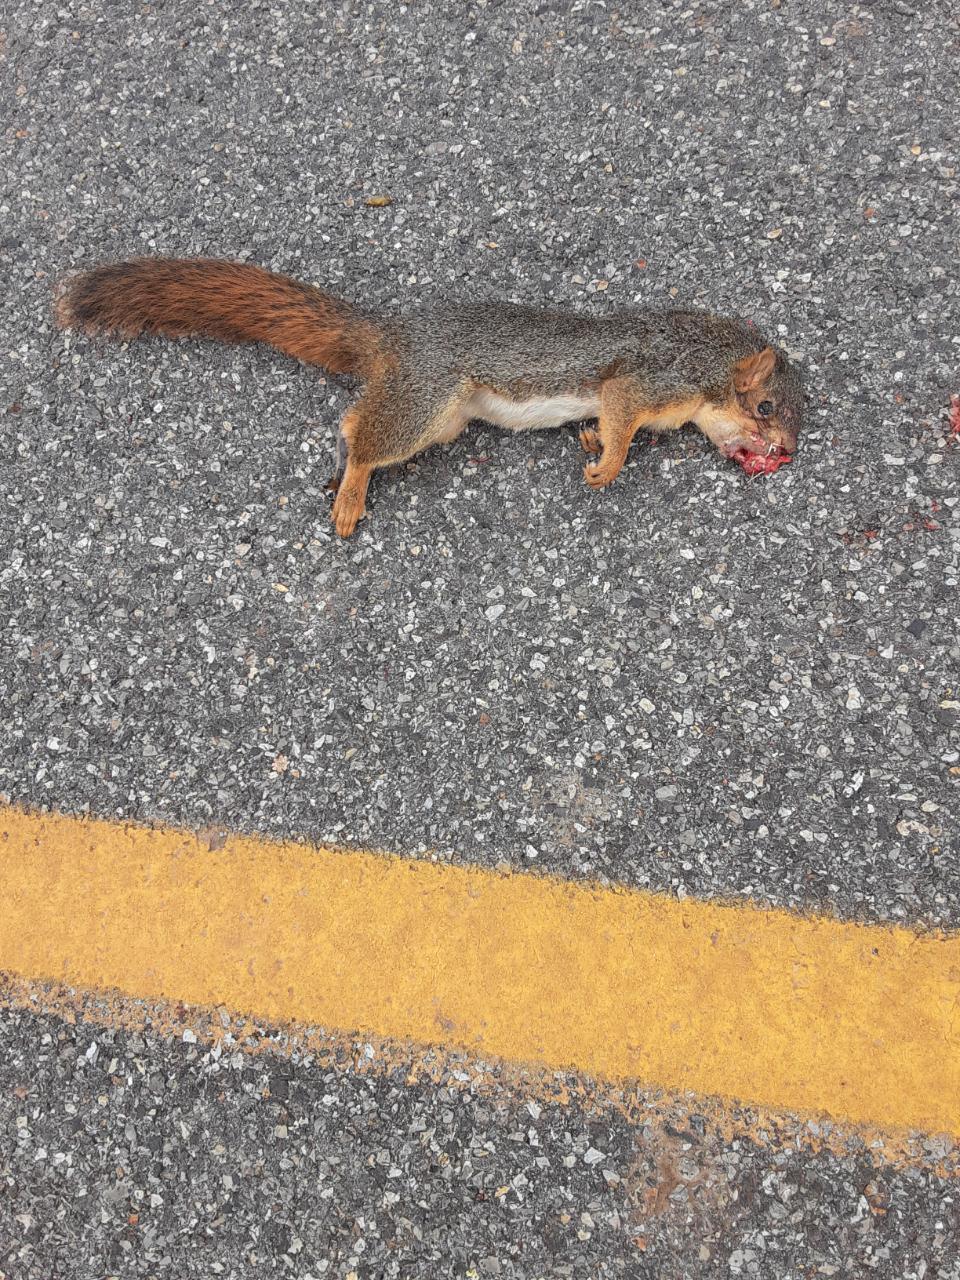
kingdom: Animalia
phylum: Chordata
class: Mammalia
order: Rodentia
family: Sciuridae
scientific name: Sciuridae
